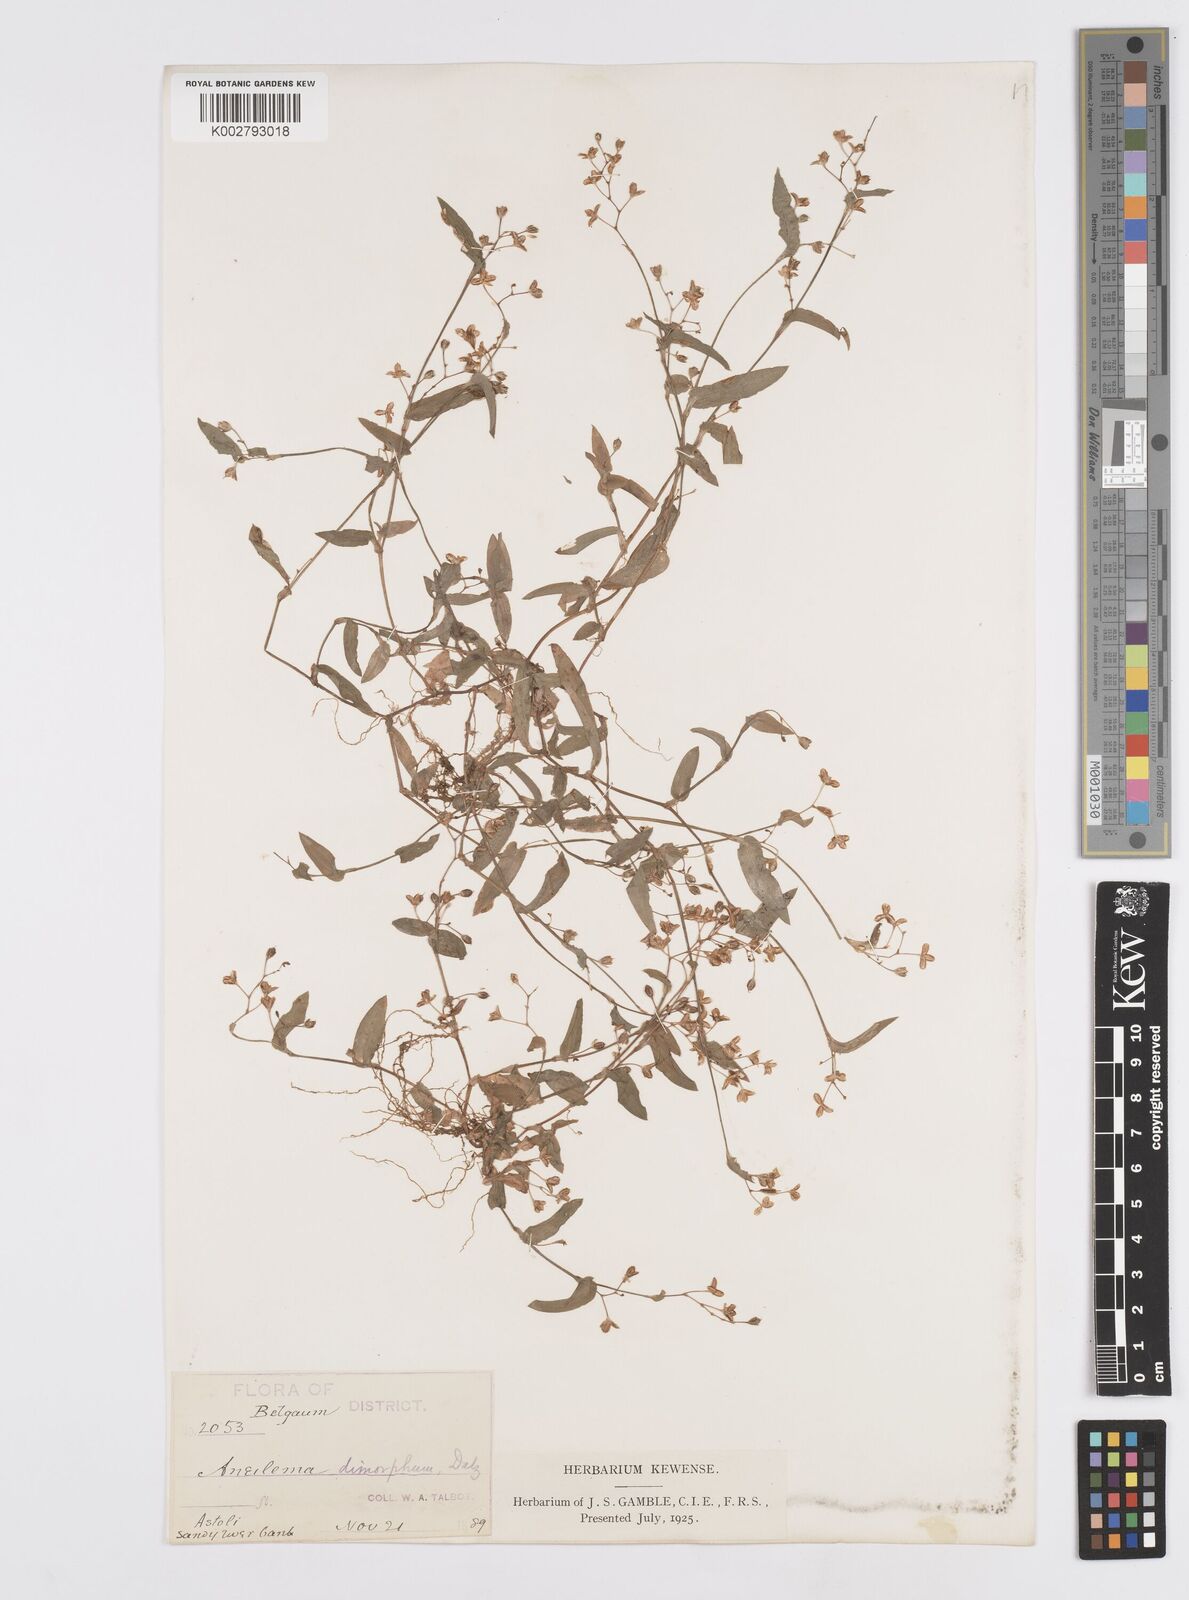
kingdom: Plantae
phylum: Tracheophyta
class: Liliopsida
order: Commelinales
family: Commelinaceae
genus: Murdannia
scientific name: Murdannia dimorpha
